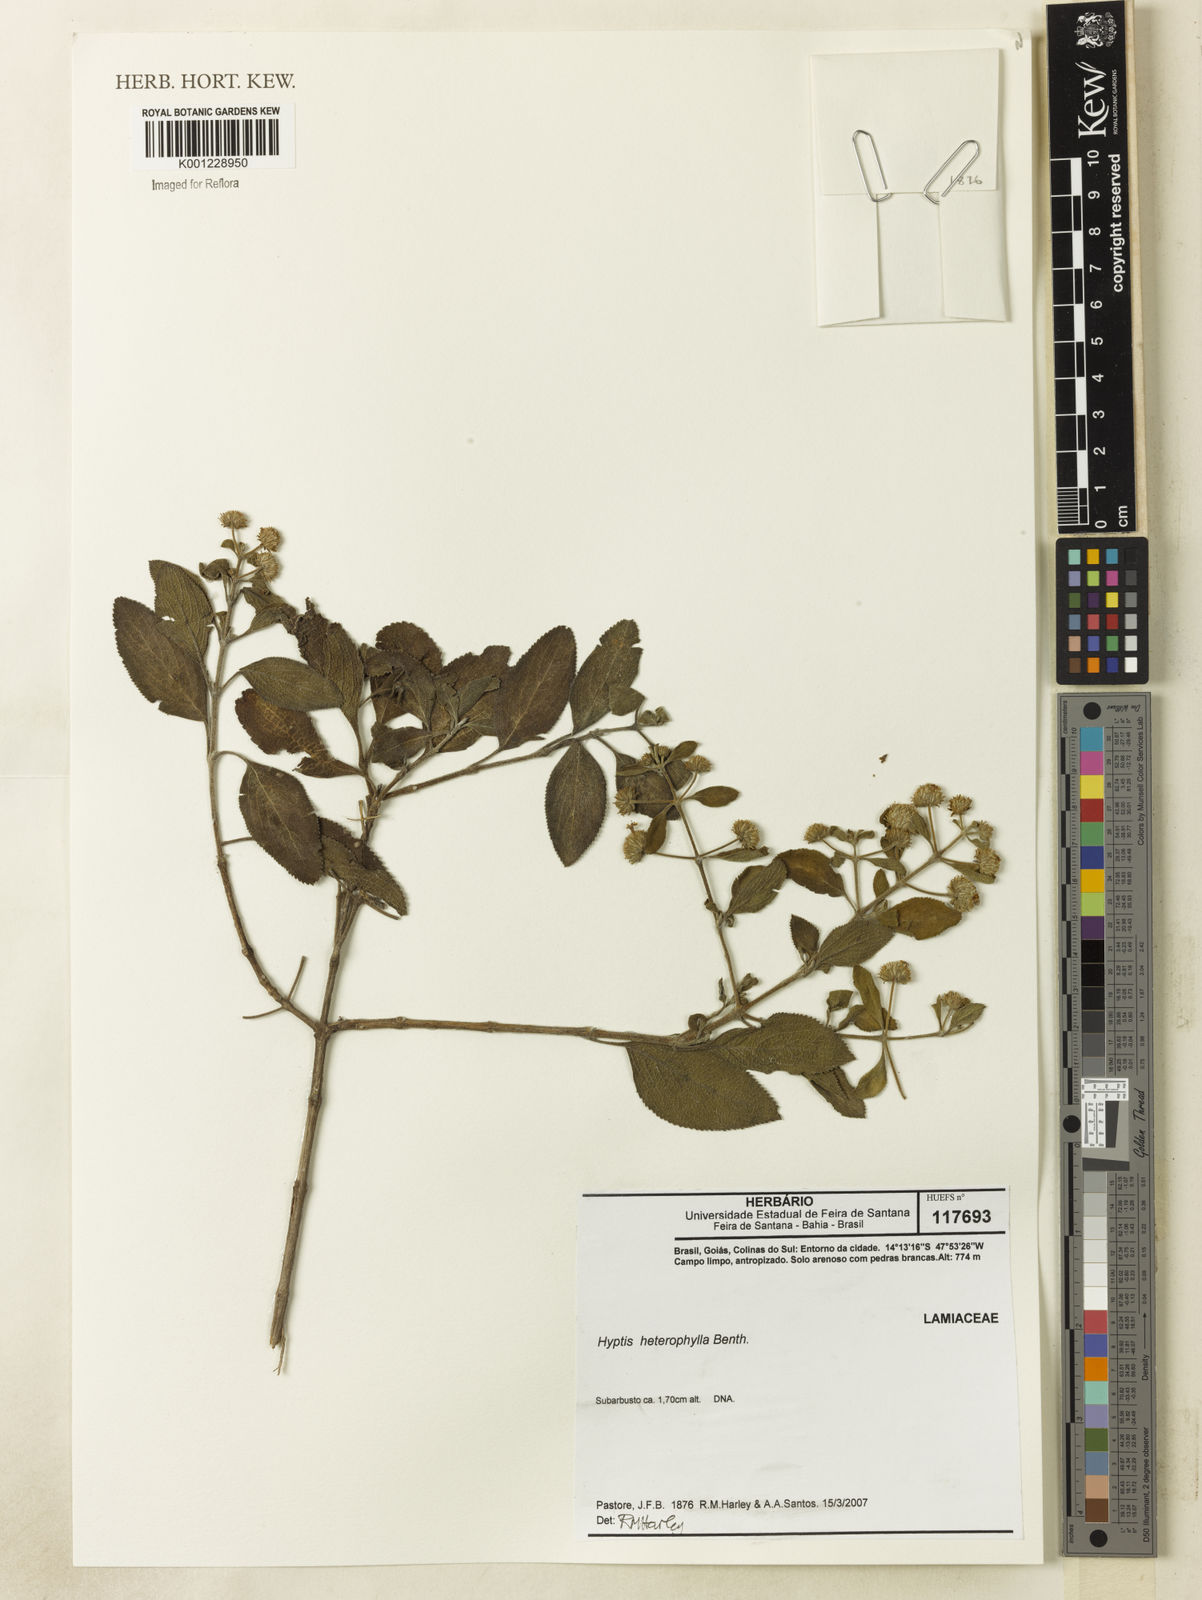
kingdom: Plantae
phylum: Tracheophyta
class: Magnoliopsida
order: Lamiales
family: Lamiaceae
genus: Hyptis
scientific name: Hyptis heterophylla
